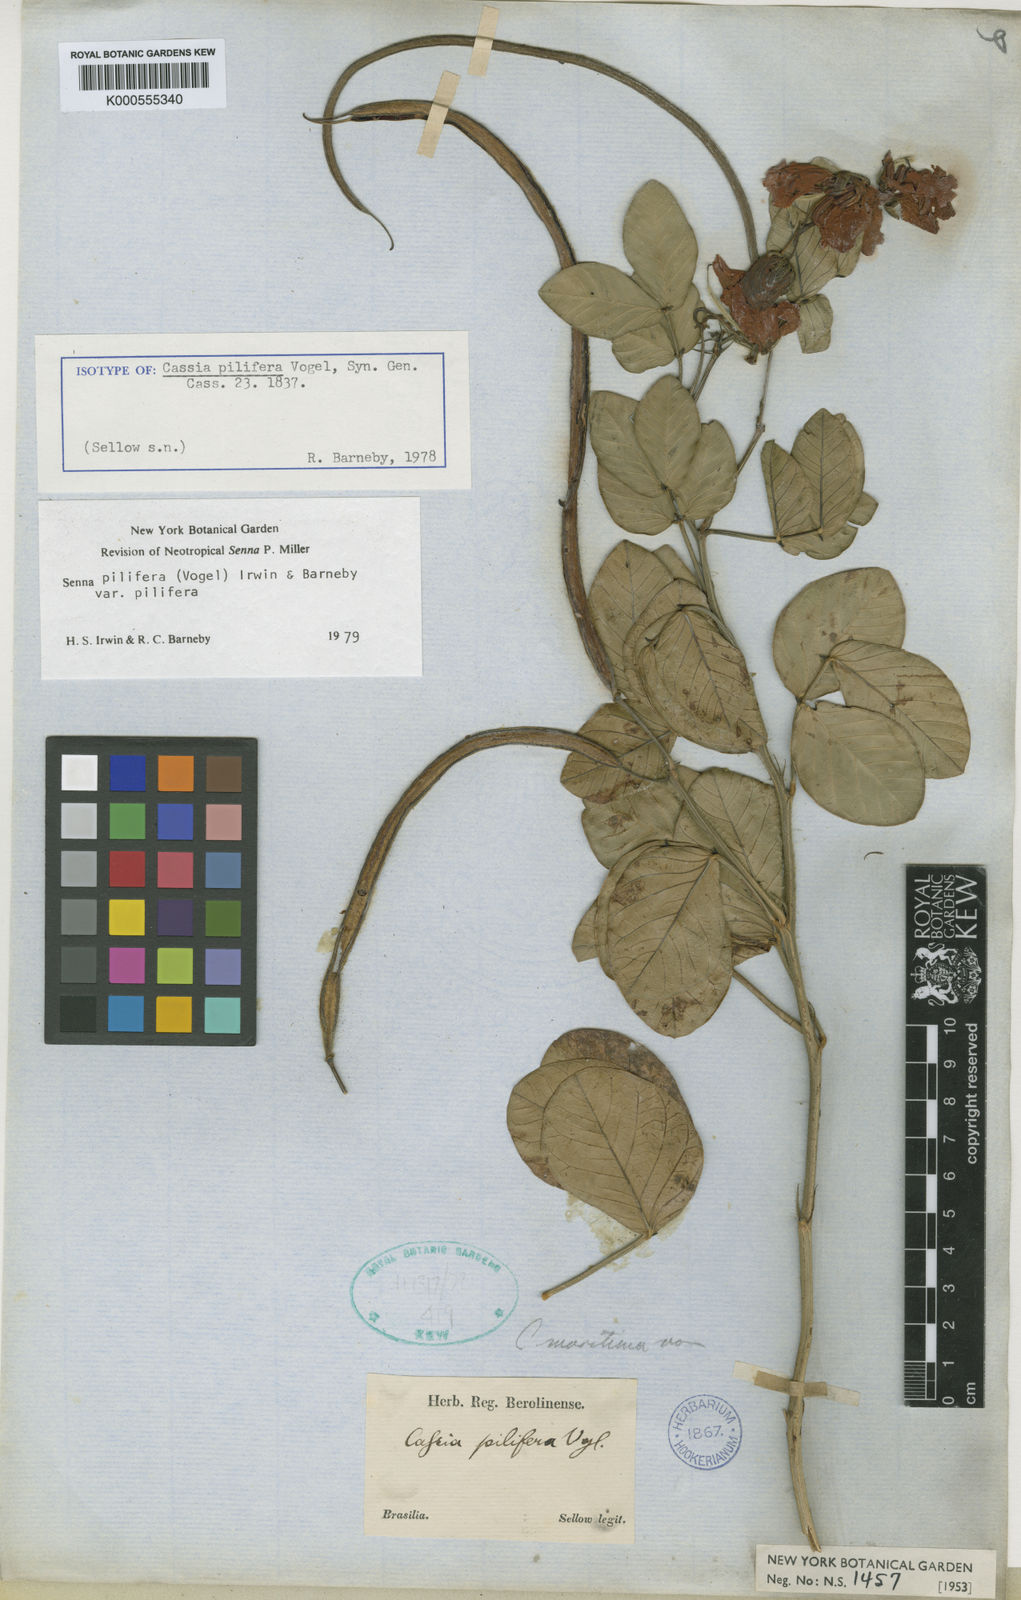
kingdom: Plantae
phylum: Tracheophyta
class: Magnoliopsida
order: Fabales
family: Fabaceae
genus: Senna
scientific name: Senna pilifera
